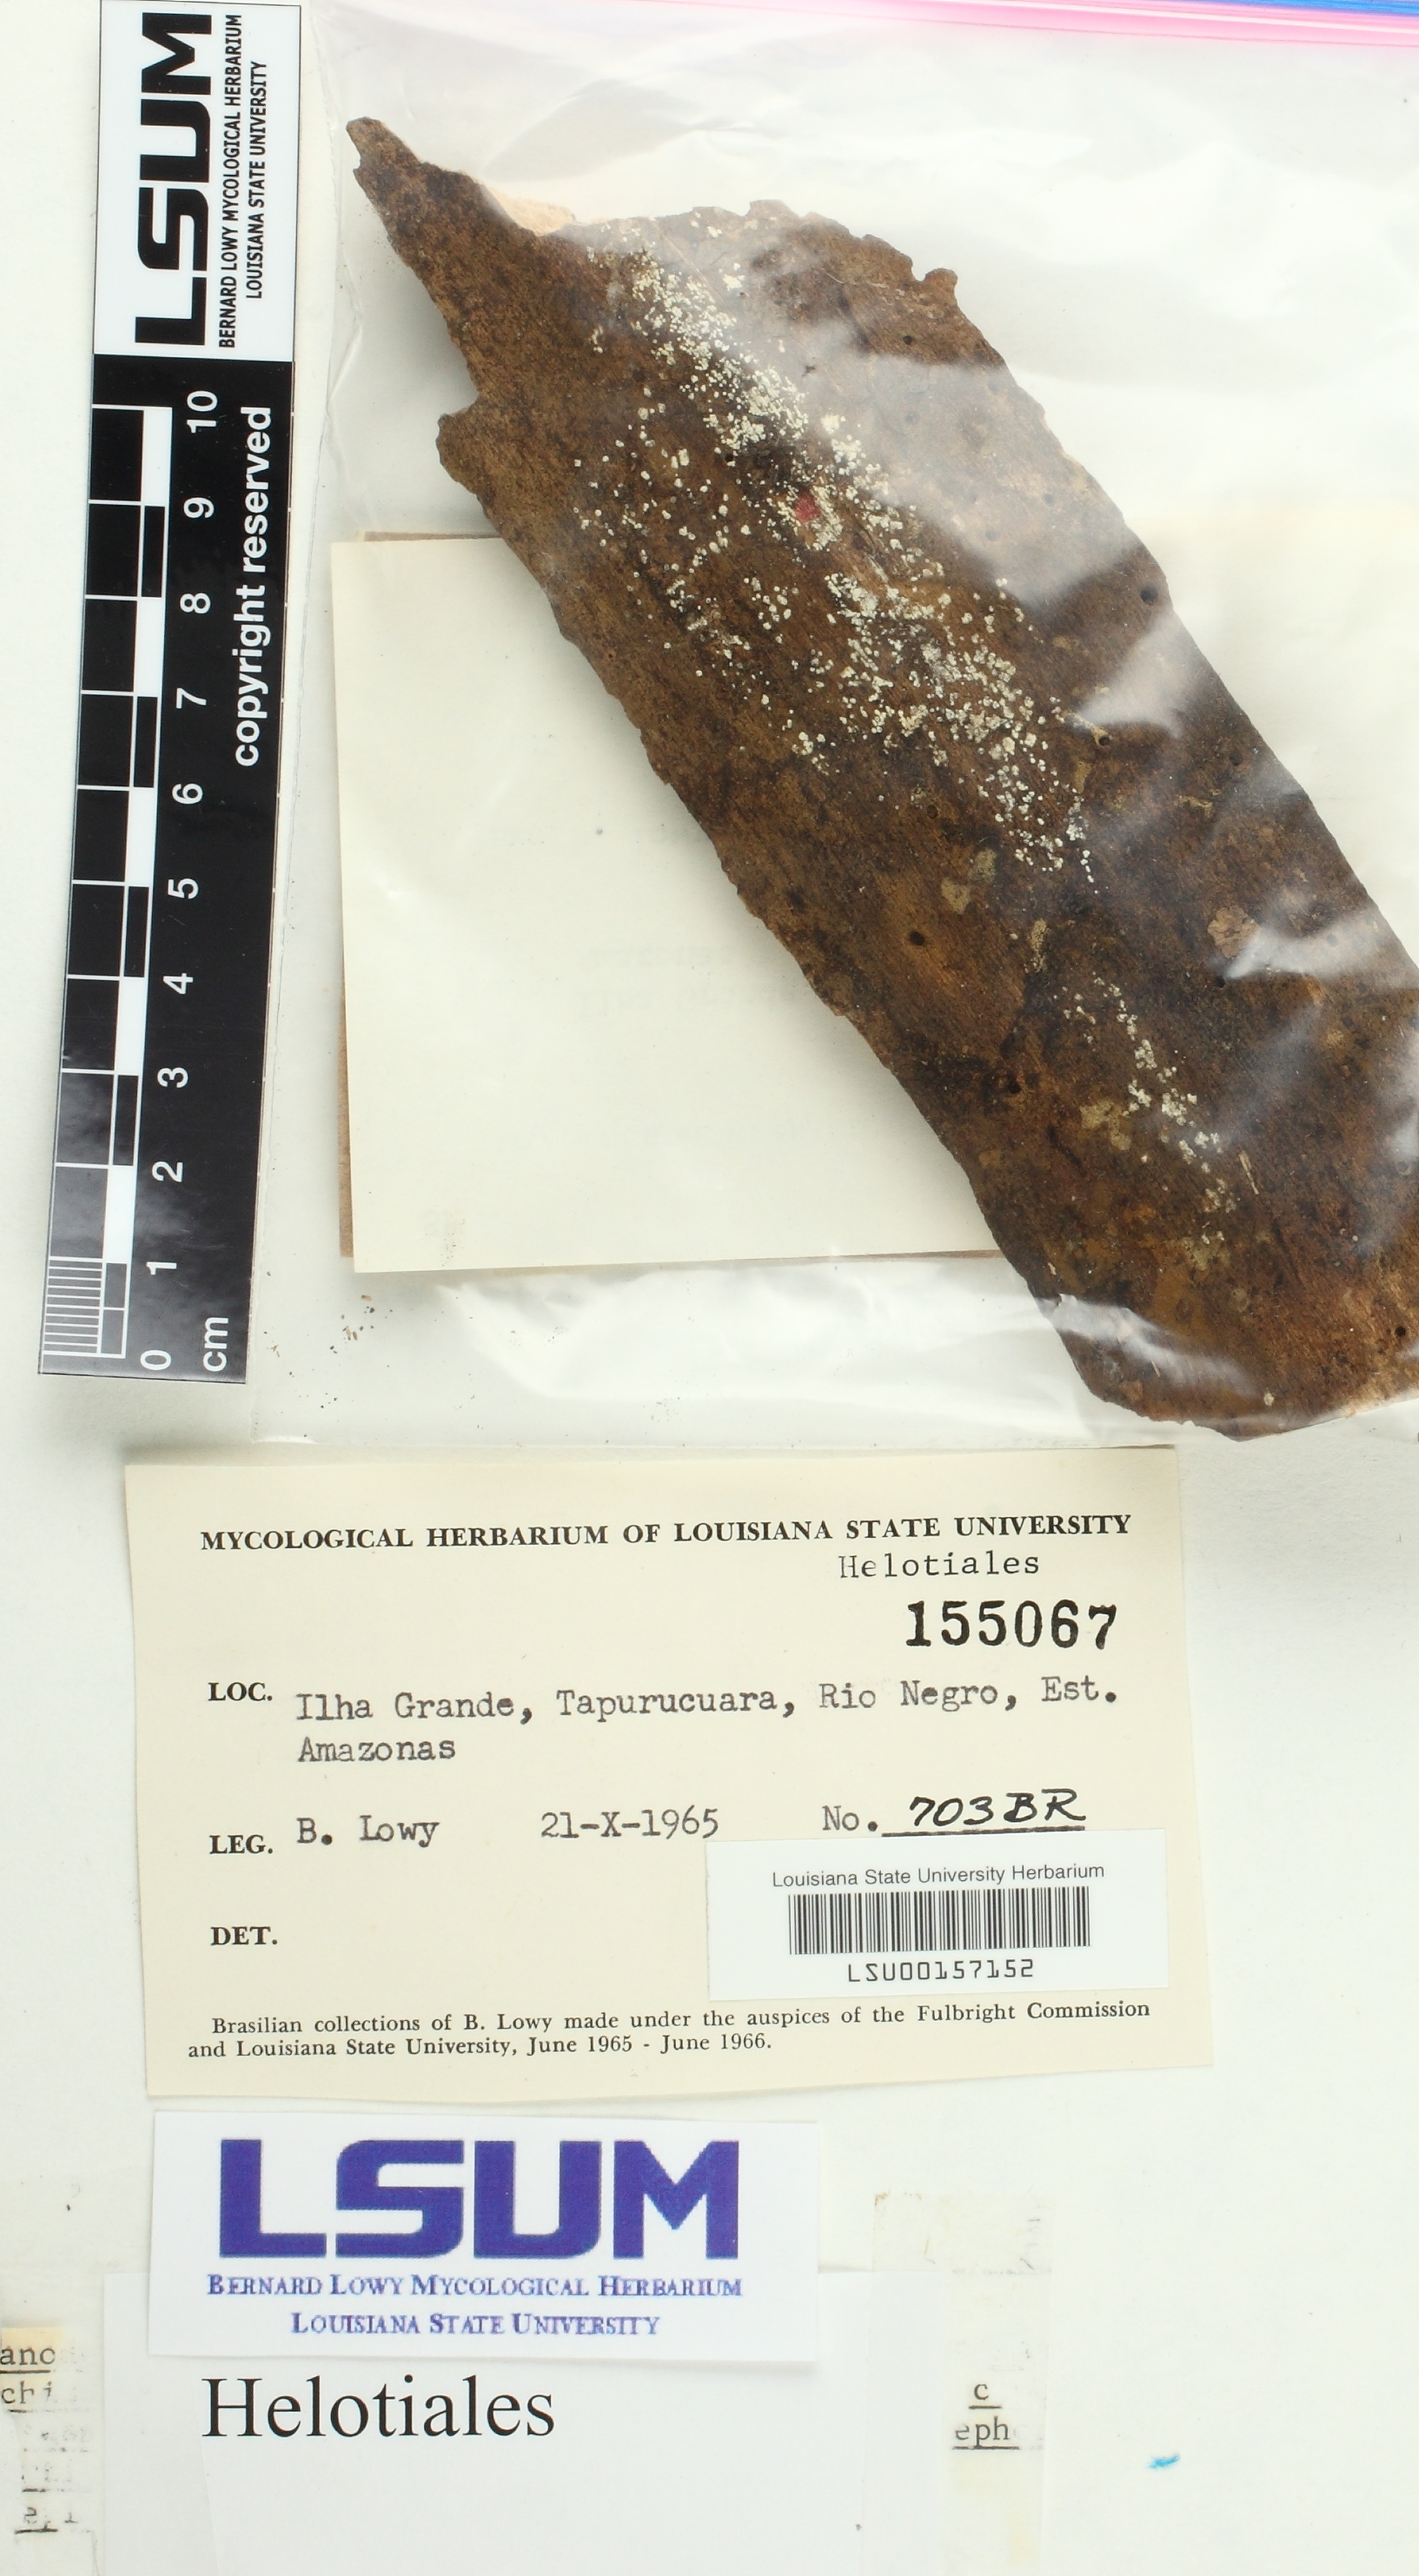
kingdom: Fungi
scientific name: Fungi
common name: Fungi
